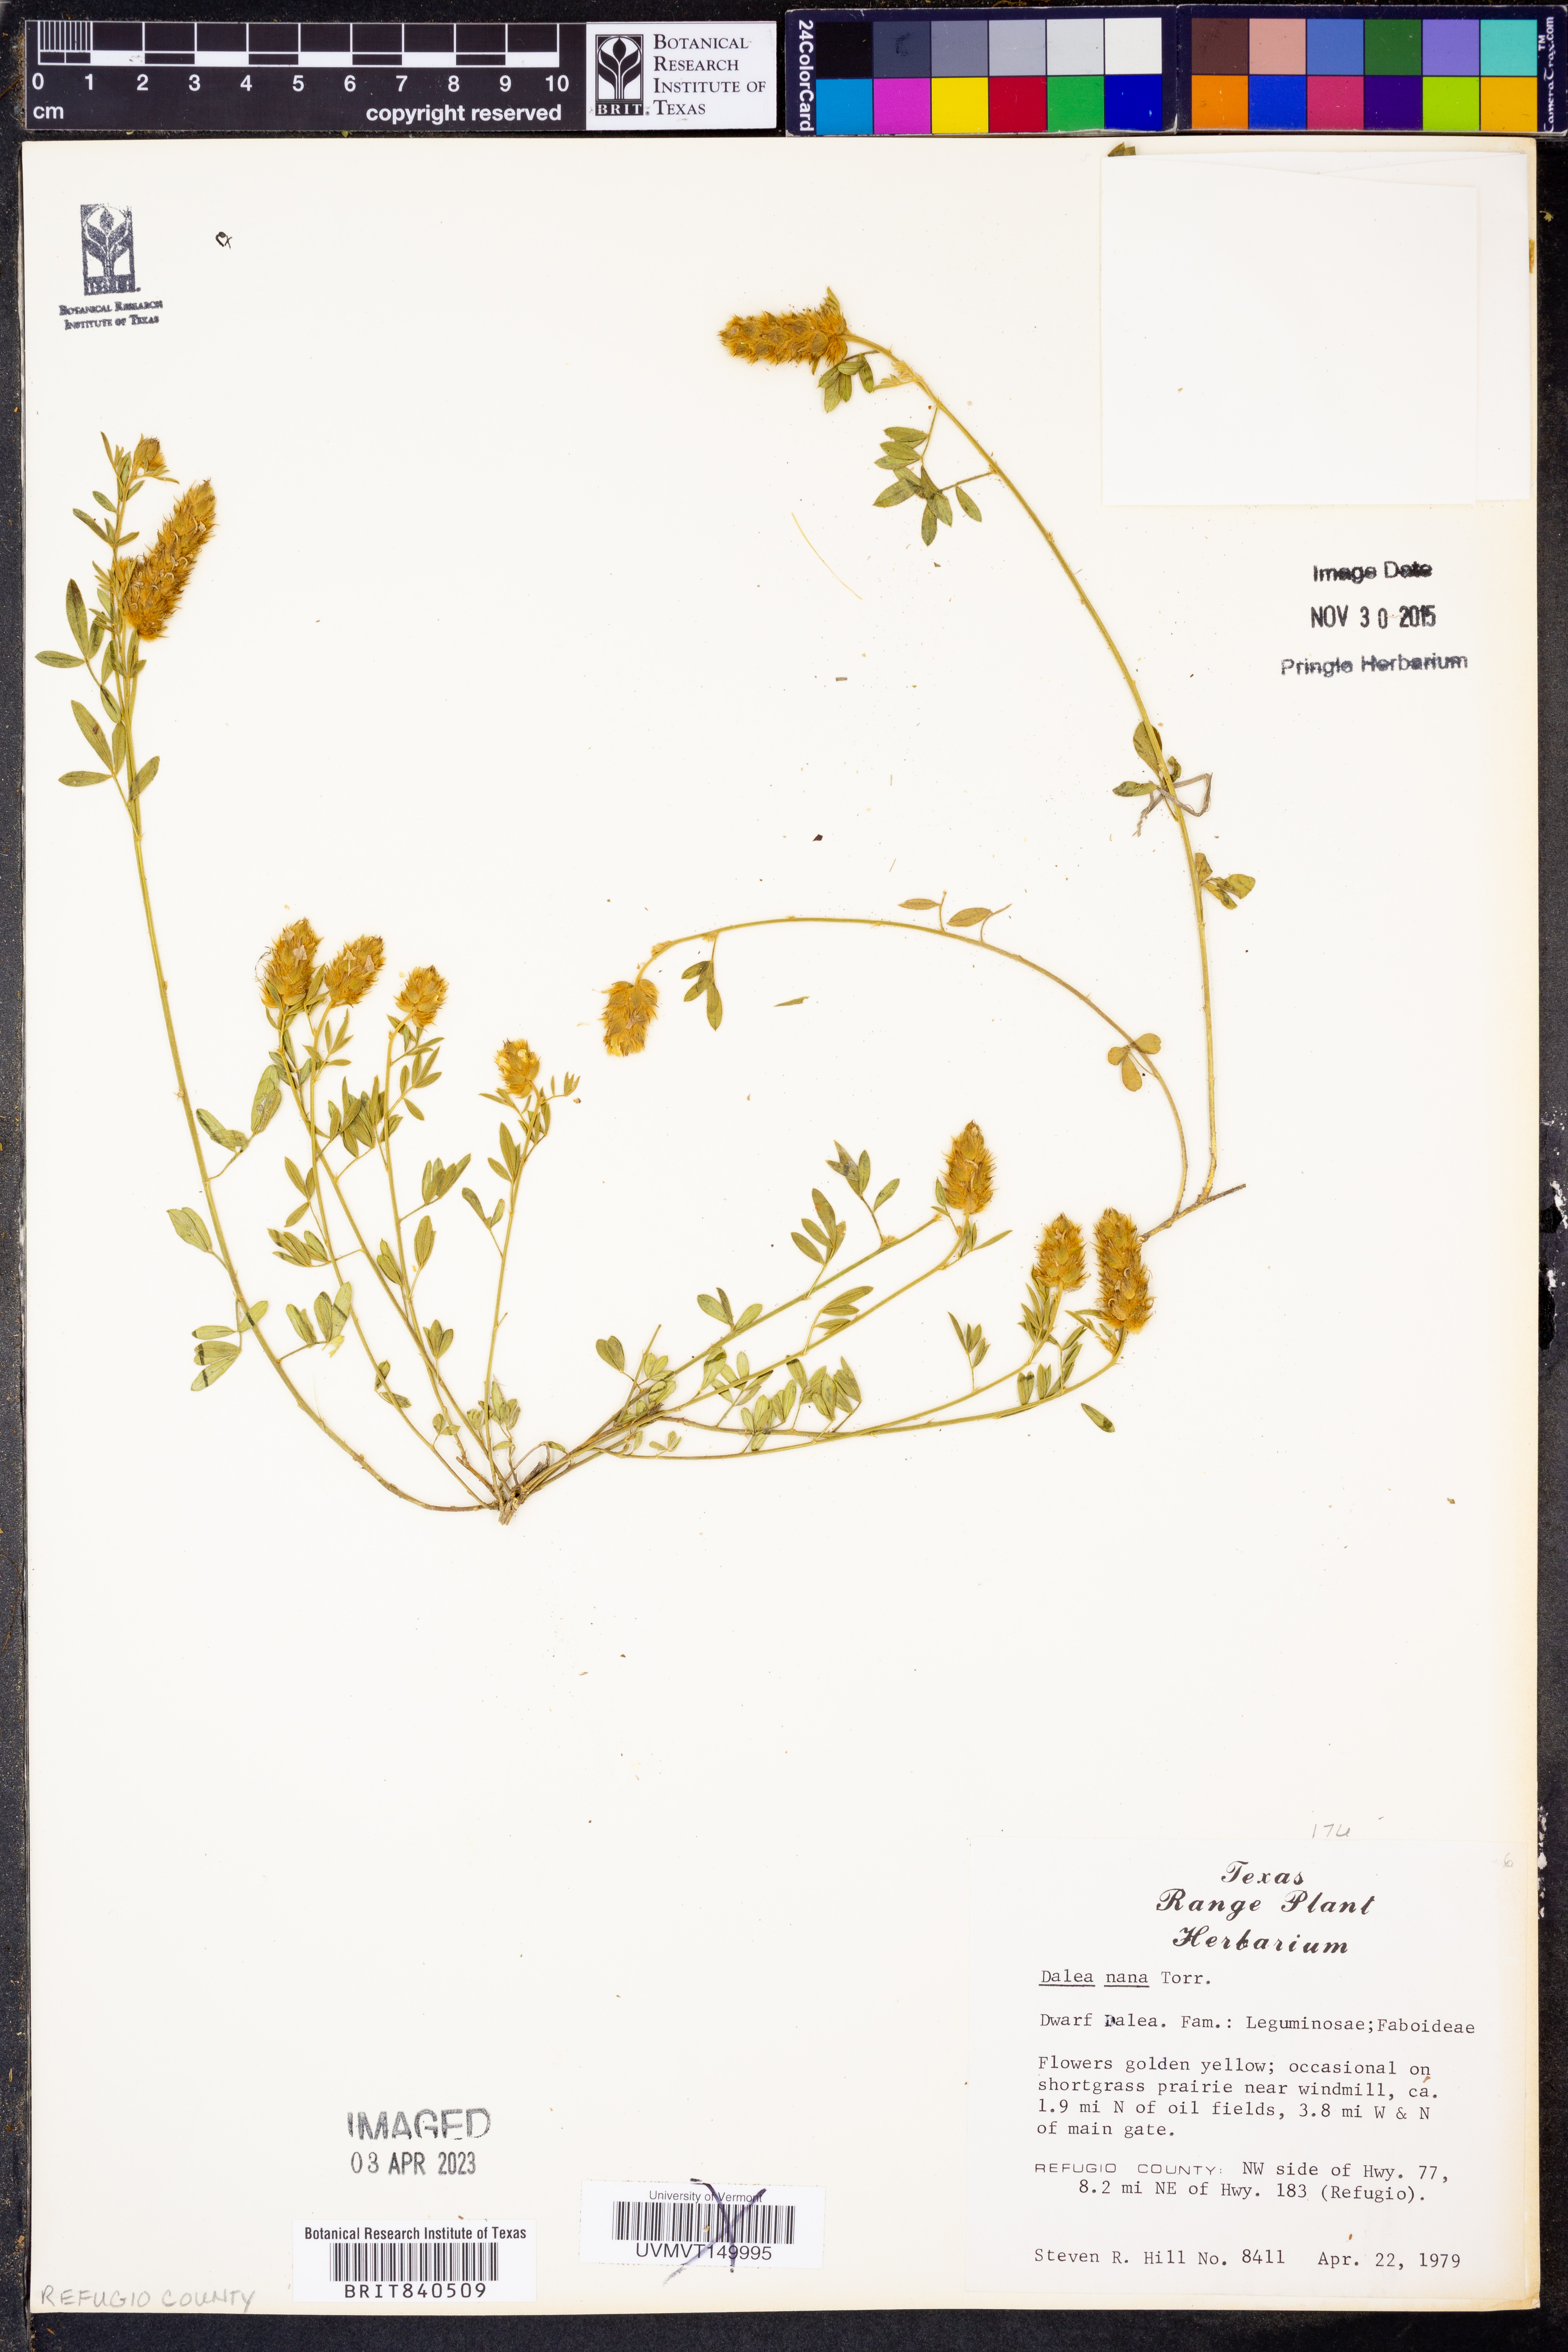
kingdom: Plantae
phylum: Tracheophyta
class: Magnoliopsida
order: Fabales
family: Fabaceae
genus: Dalea
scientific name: Dalea nana
